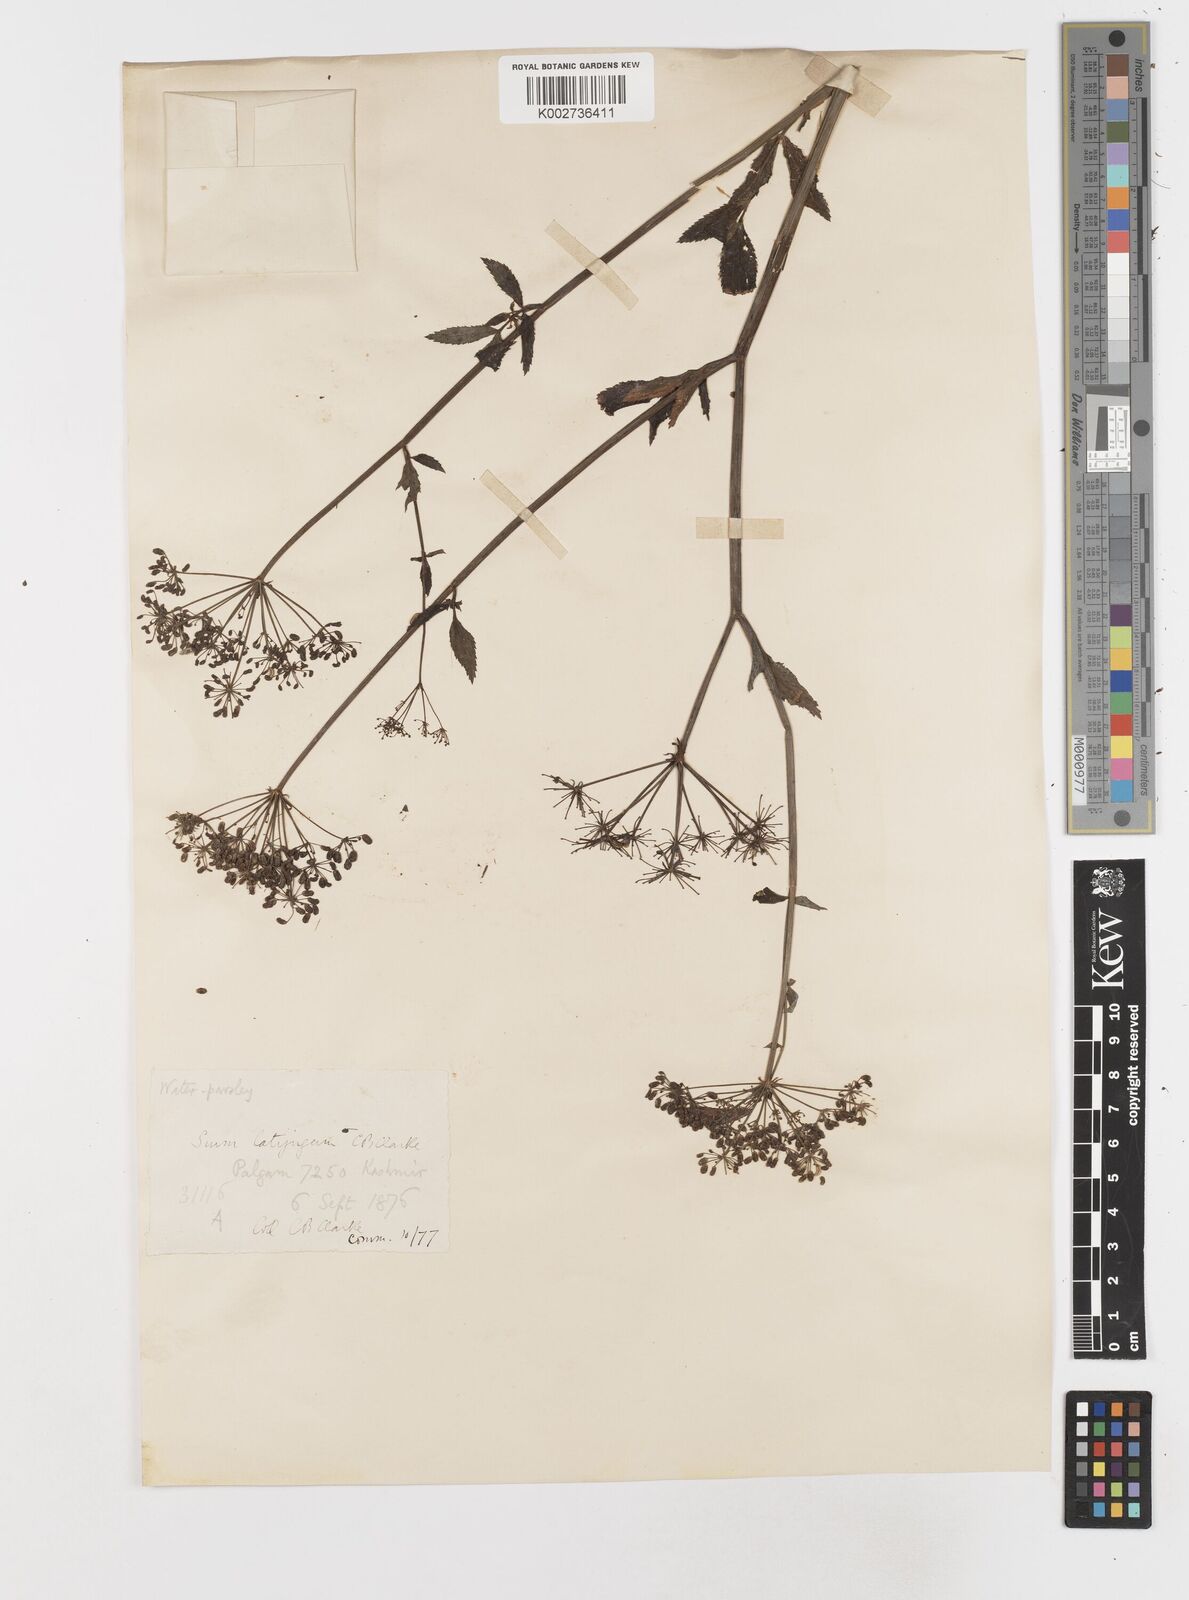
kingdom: Plantae
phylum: Tracheophyta
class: Magnoliopsida
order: Apiales
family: Apiaceae
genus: Sium
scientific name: Sium sisarum
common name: Skirret
